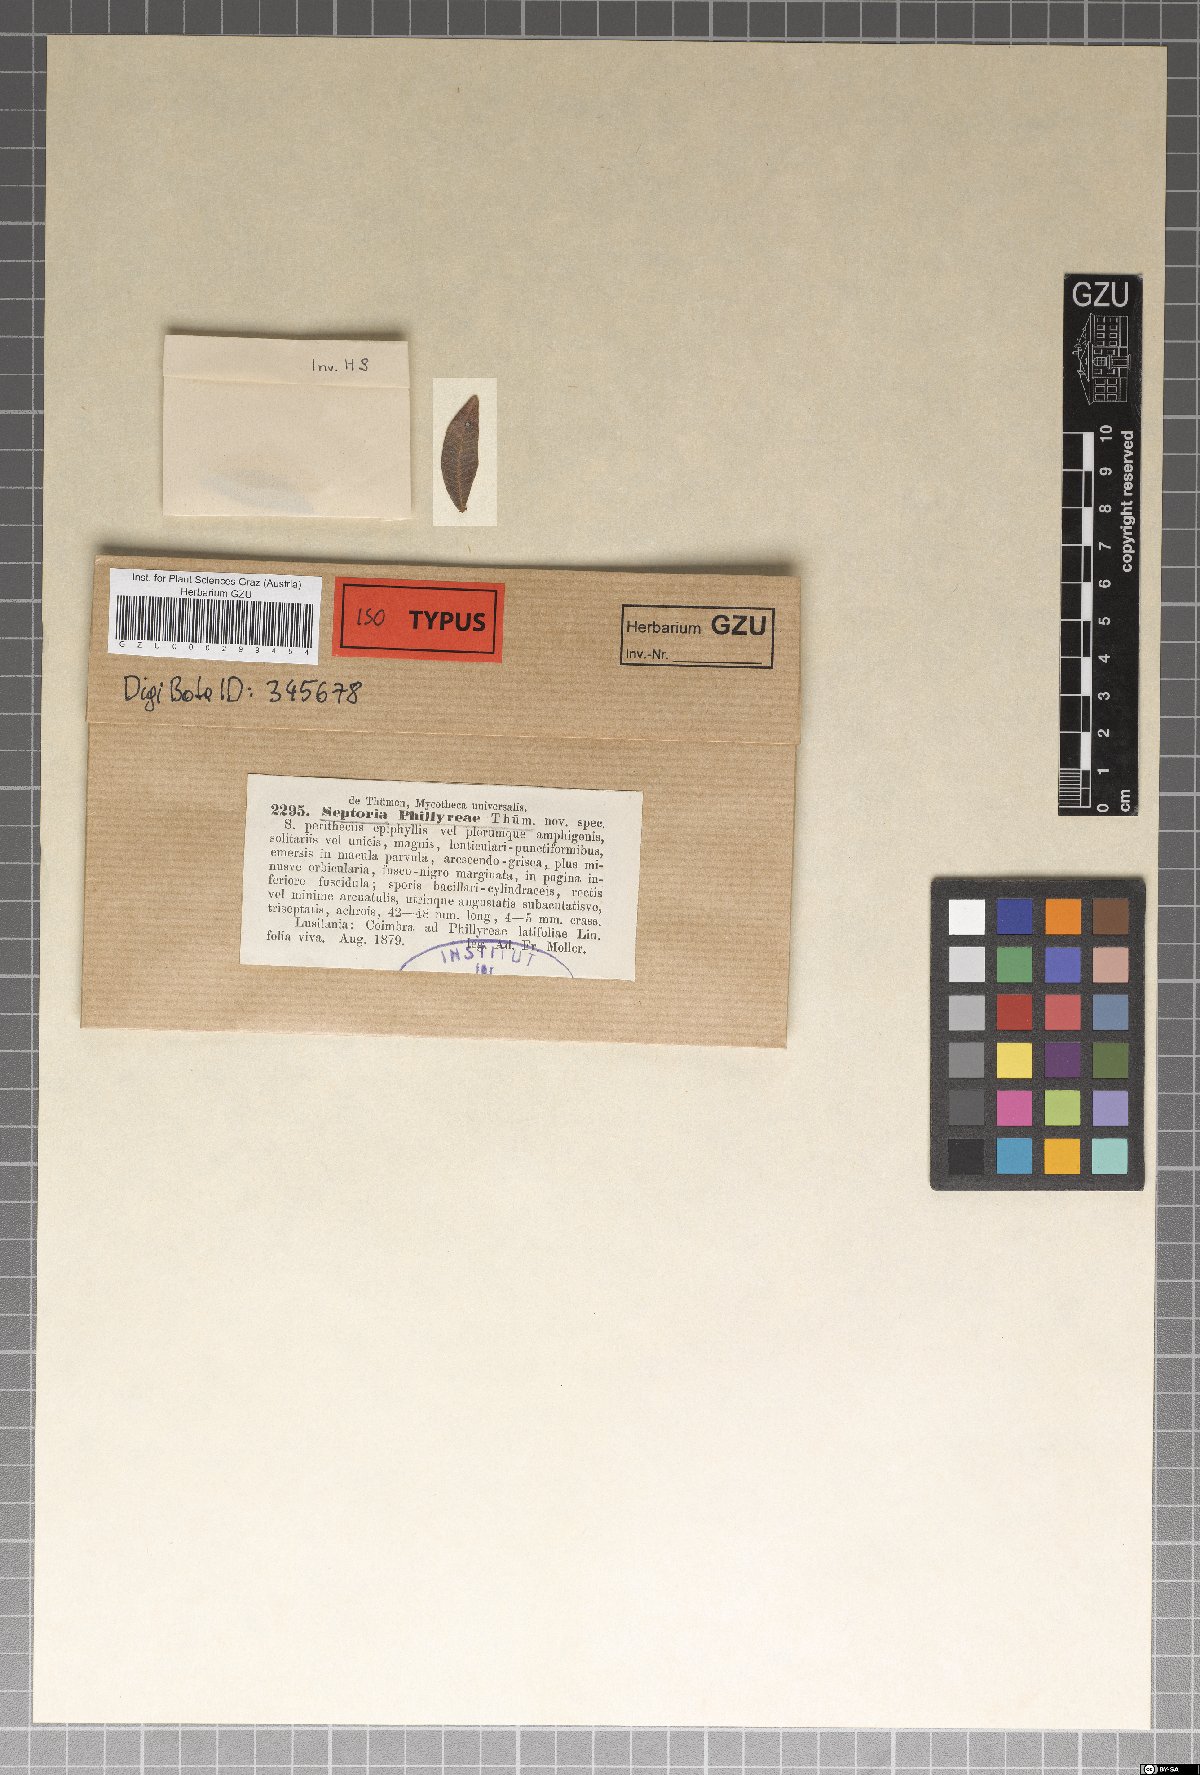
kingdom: Fungi
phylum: Ascomycota
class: Dothideomycetes
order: Capnodiales
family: Mycosphaerellaceae
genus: Septoria
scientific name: Septoria phillyreae
